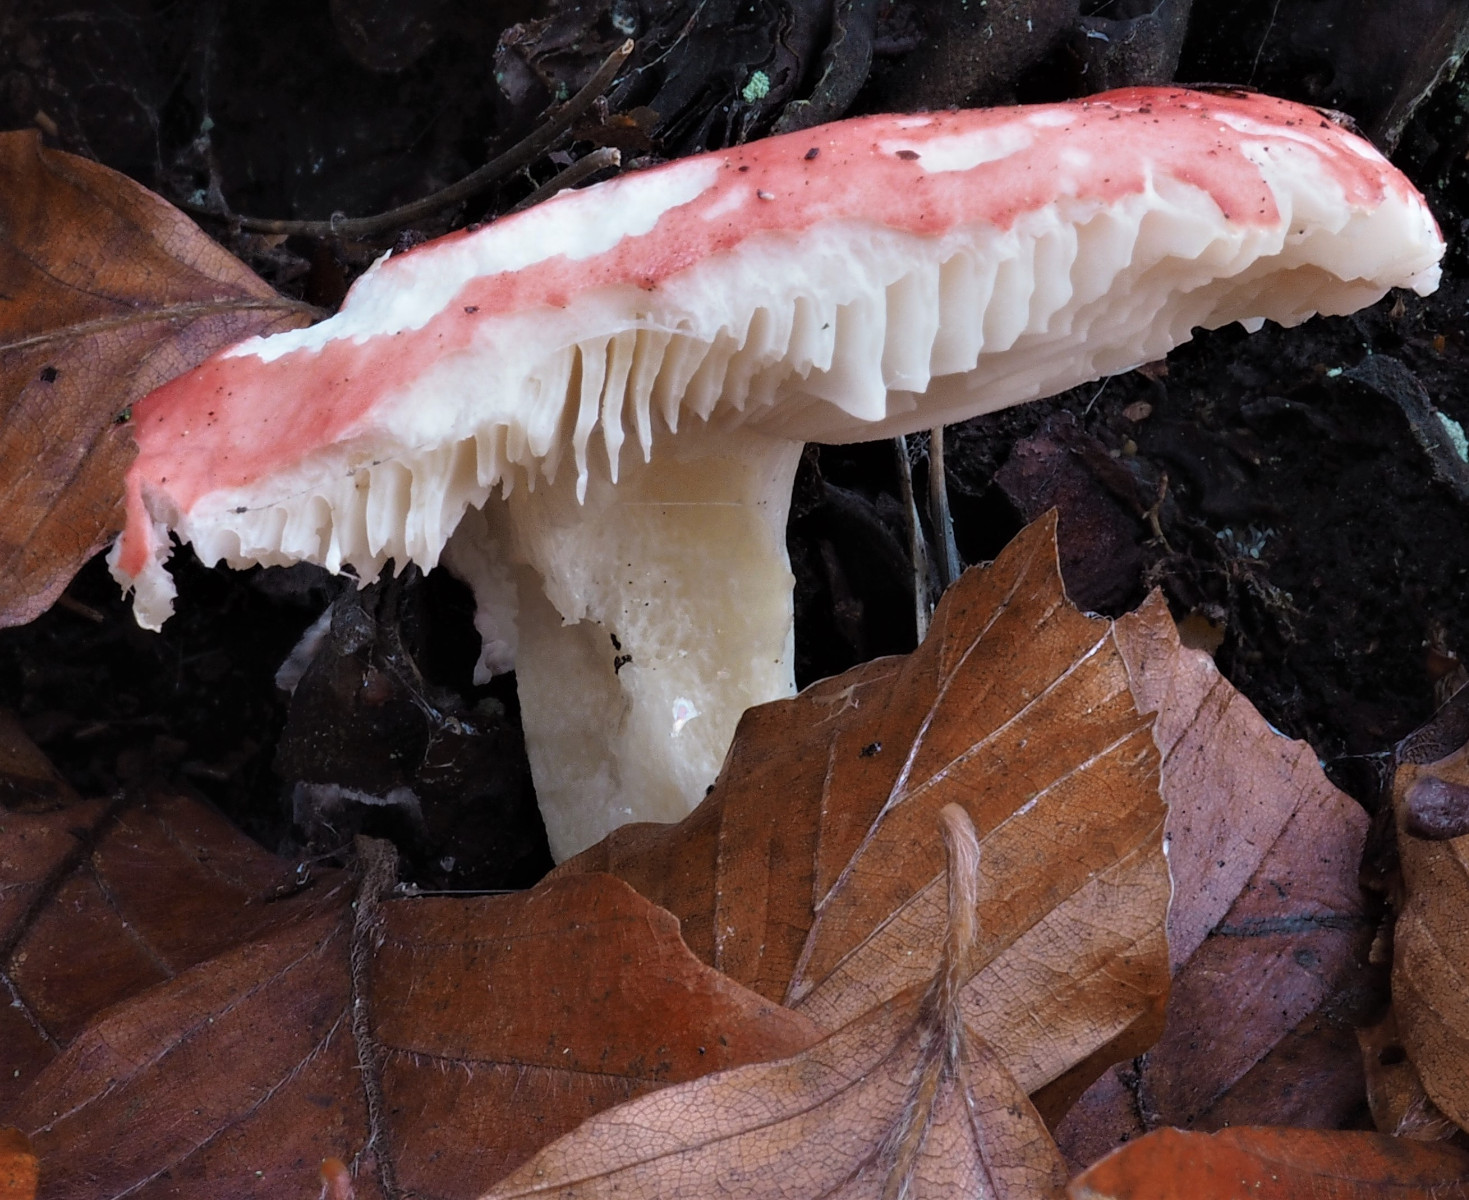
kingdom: Fungi
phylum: Basidiomycota
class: Agaricomycetes
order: Russulales
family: Russulaceae
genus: Russula
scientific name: Russula silvestris
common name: mellemstor gift-skørhat
